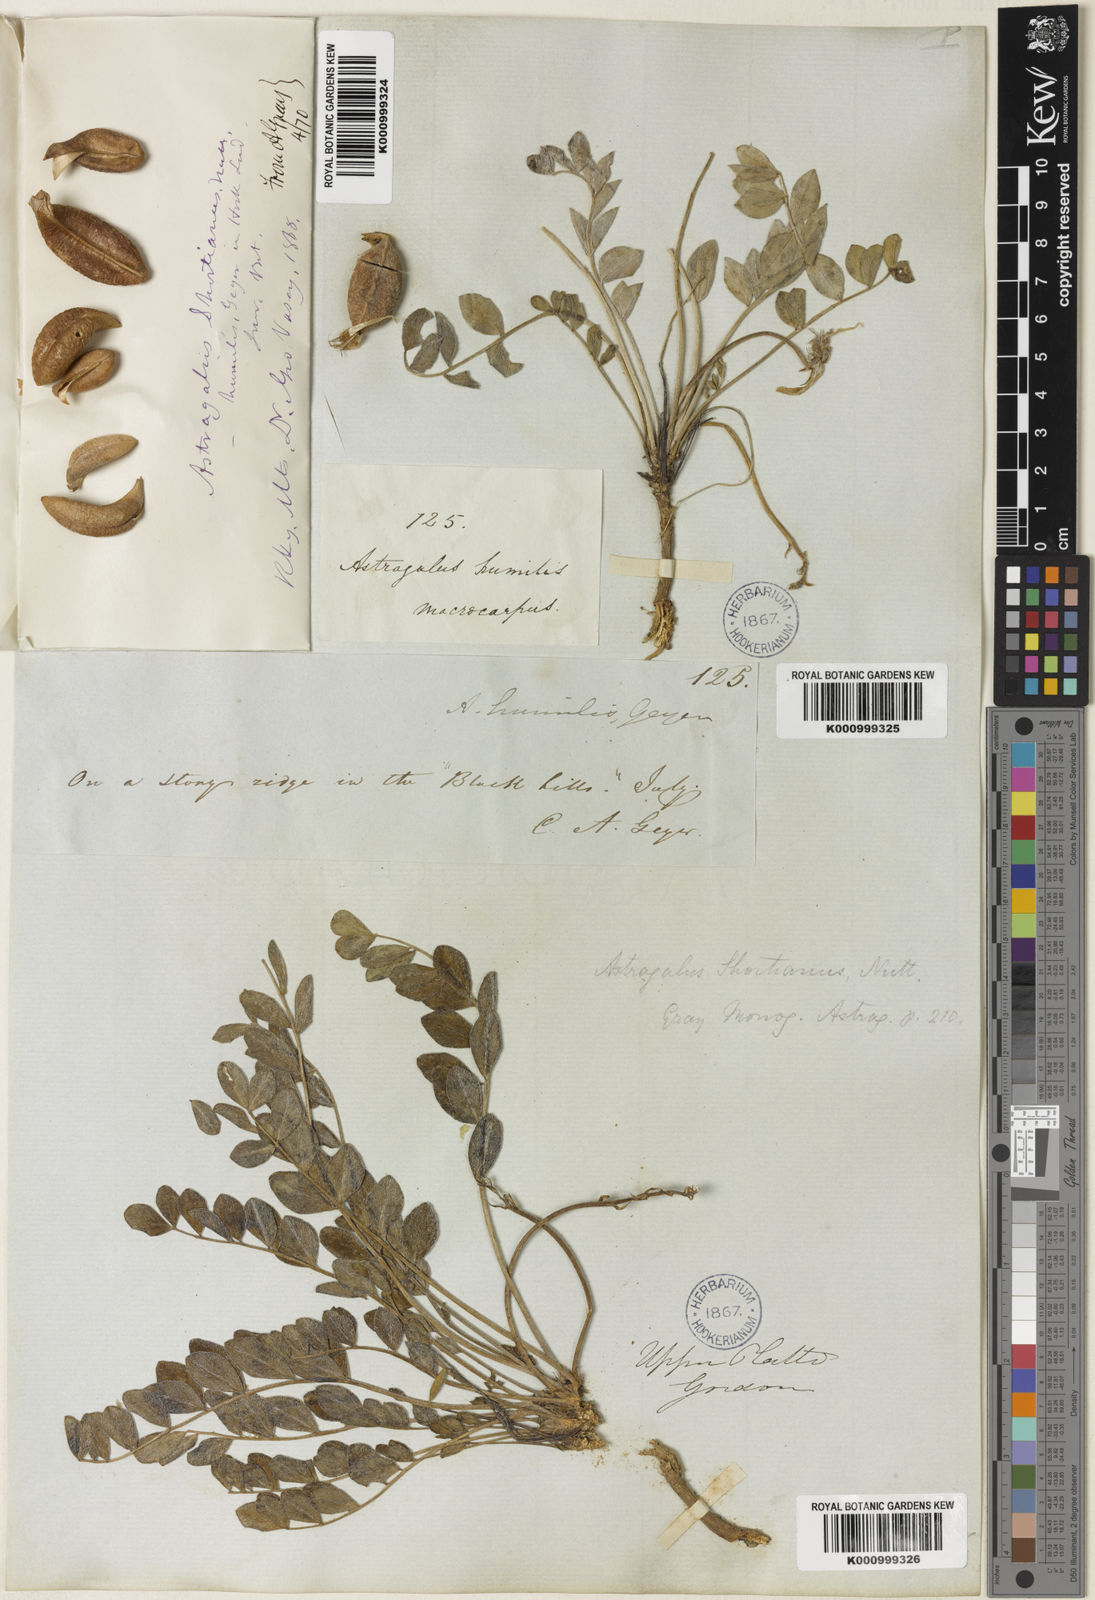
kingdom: Plantae
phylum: Tracheophyta
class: Magnoliopsida
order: Fabales
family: Fabaceae
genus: Astragalus
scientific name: Astragalus shortianus
